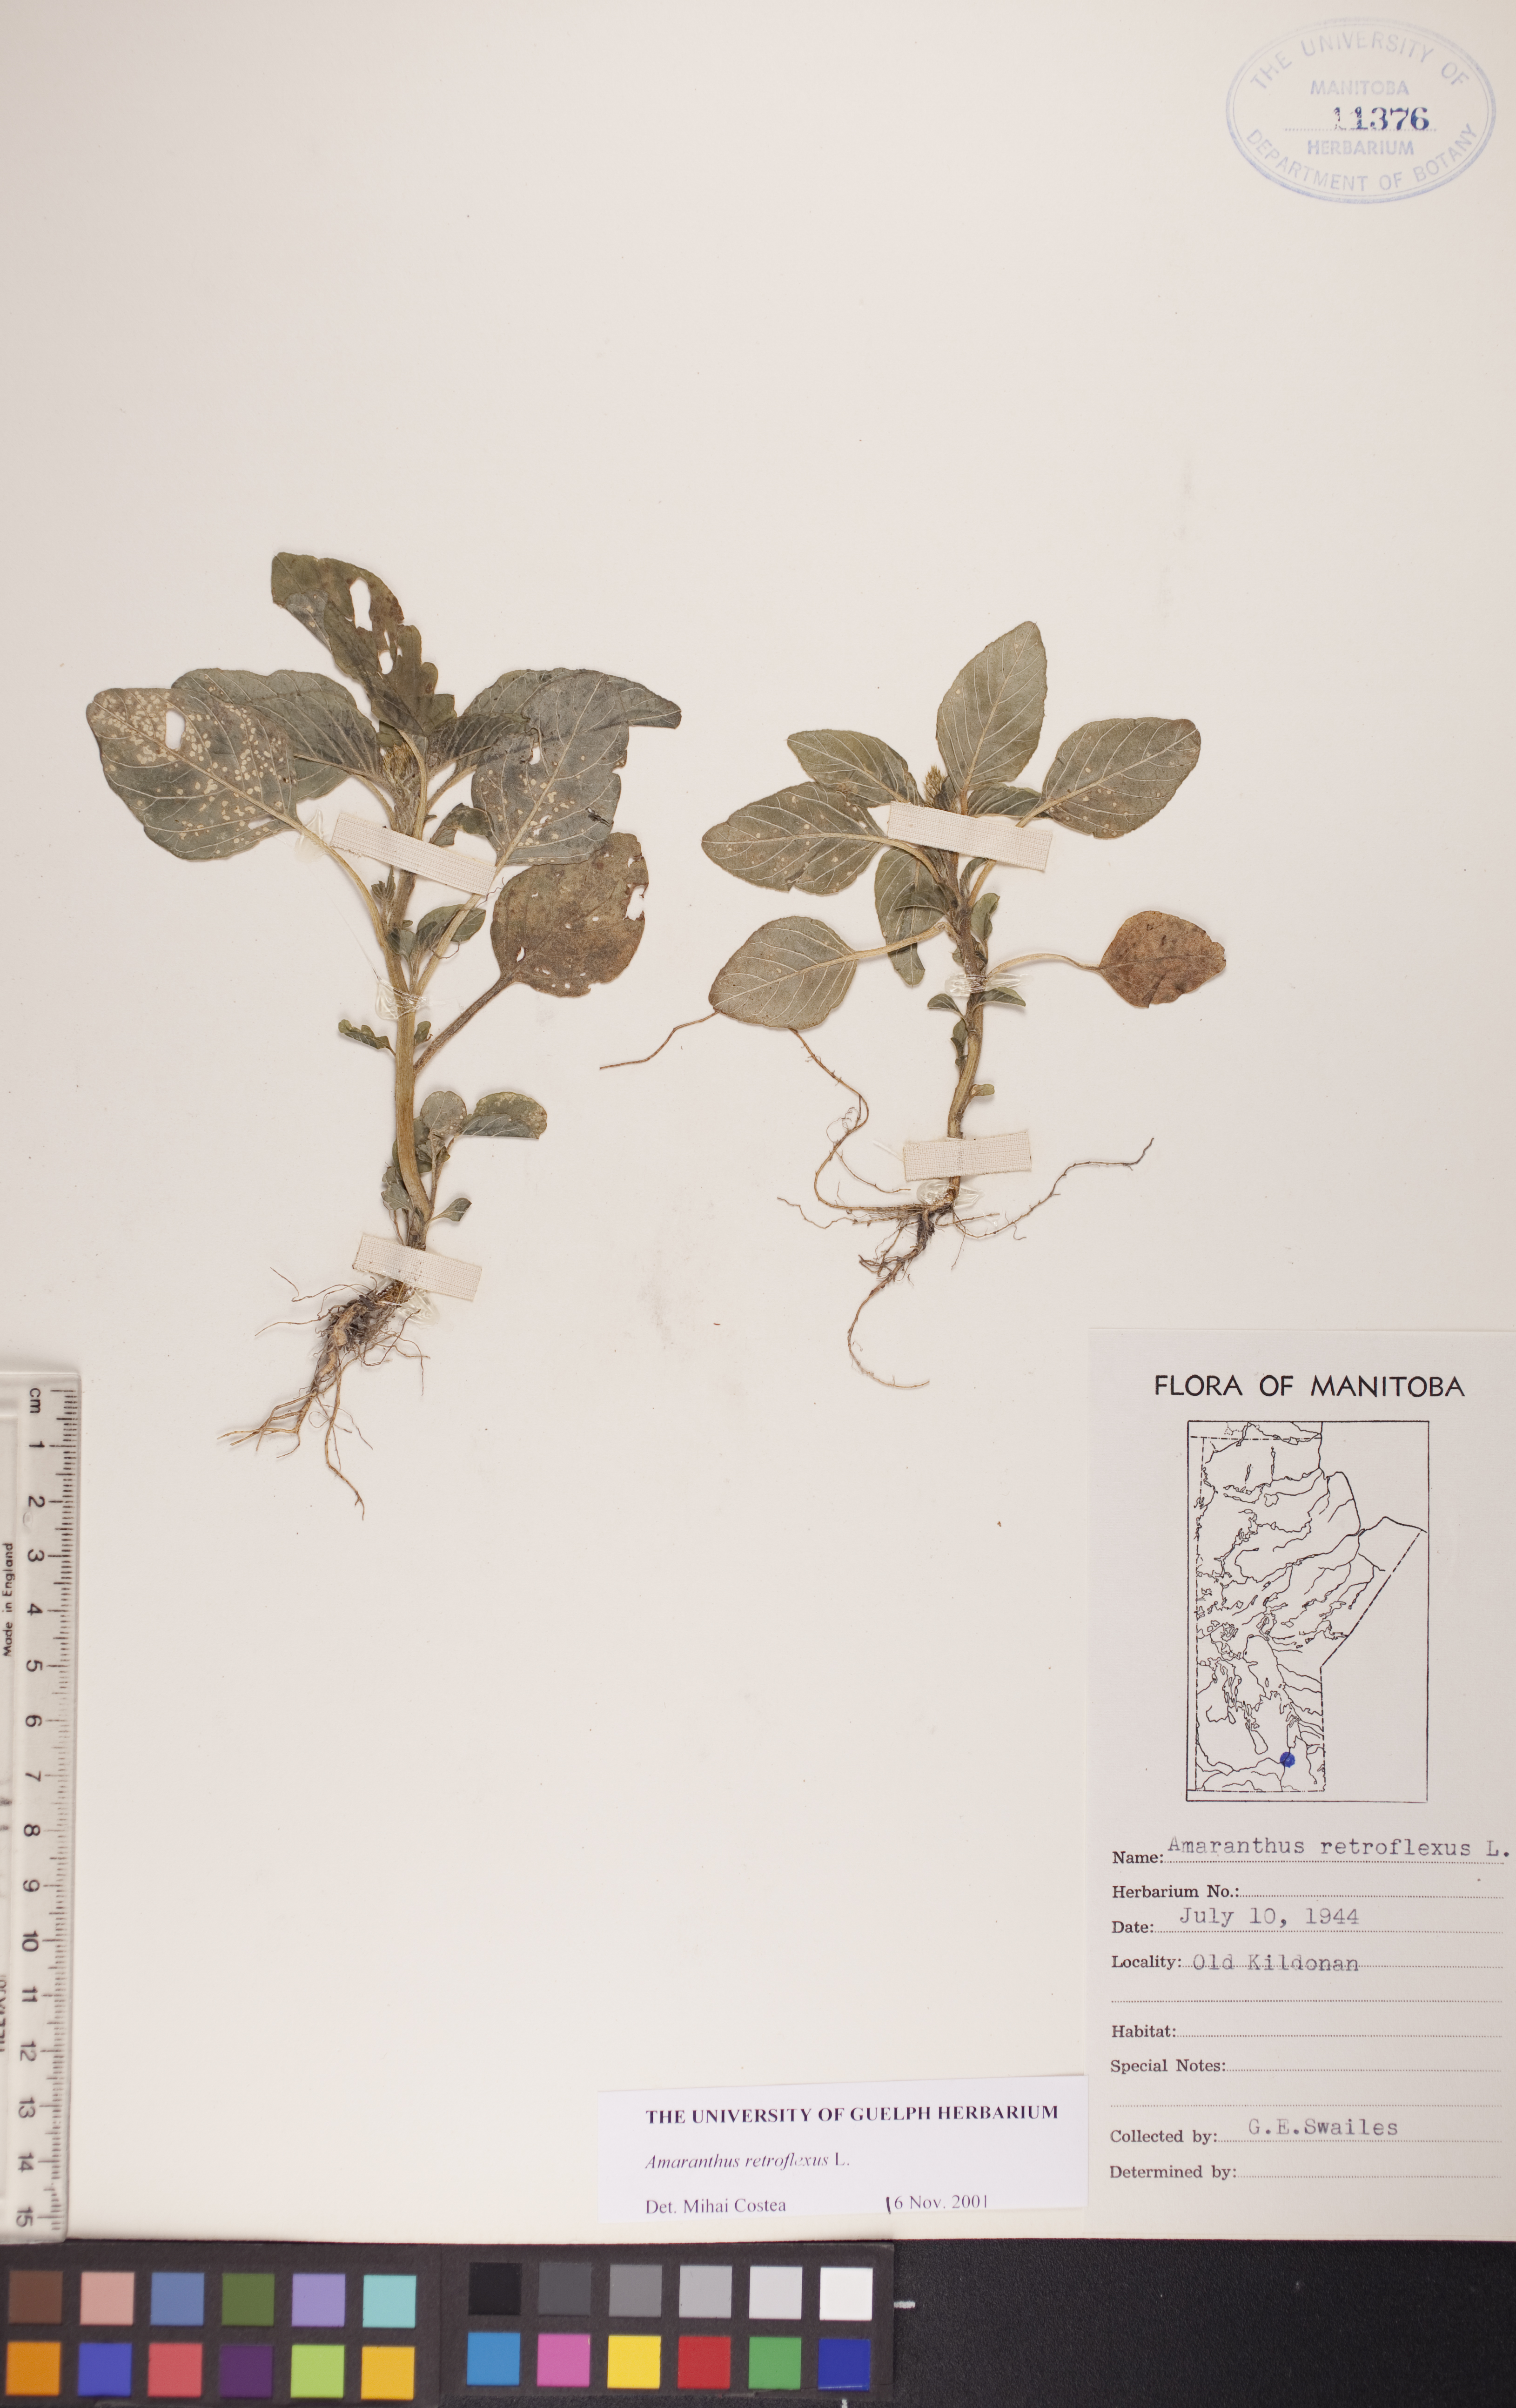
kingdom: Plantae
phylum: Tracheophyta
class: Magnoliopsida
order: Caryophyllales
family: Amaranthaceae
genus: Amaranthus
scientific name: Amaranthus retroflexus
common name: Redroot amaranth
